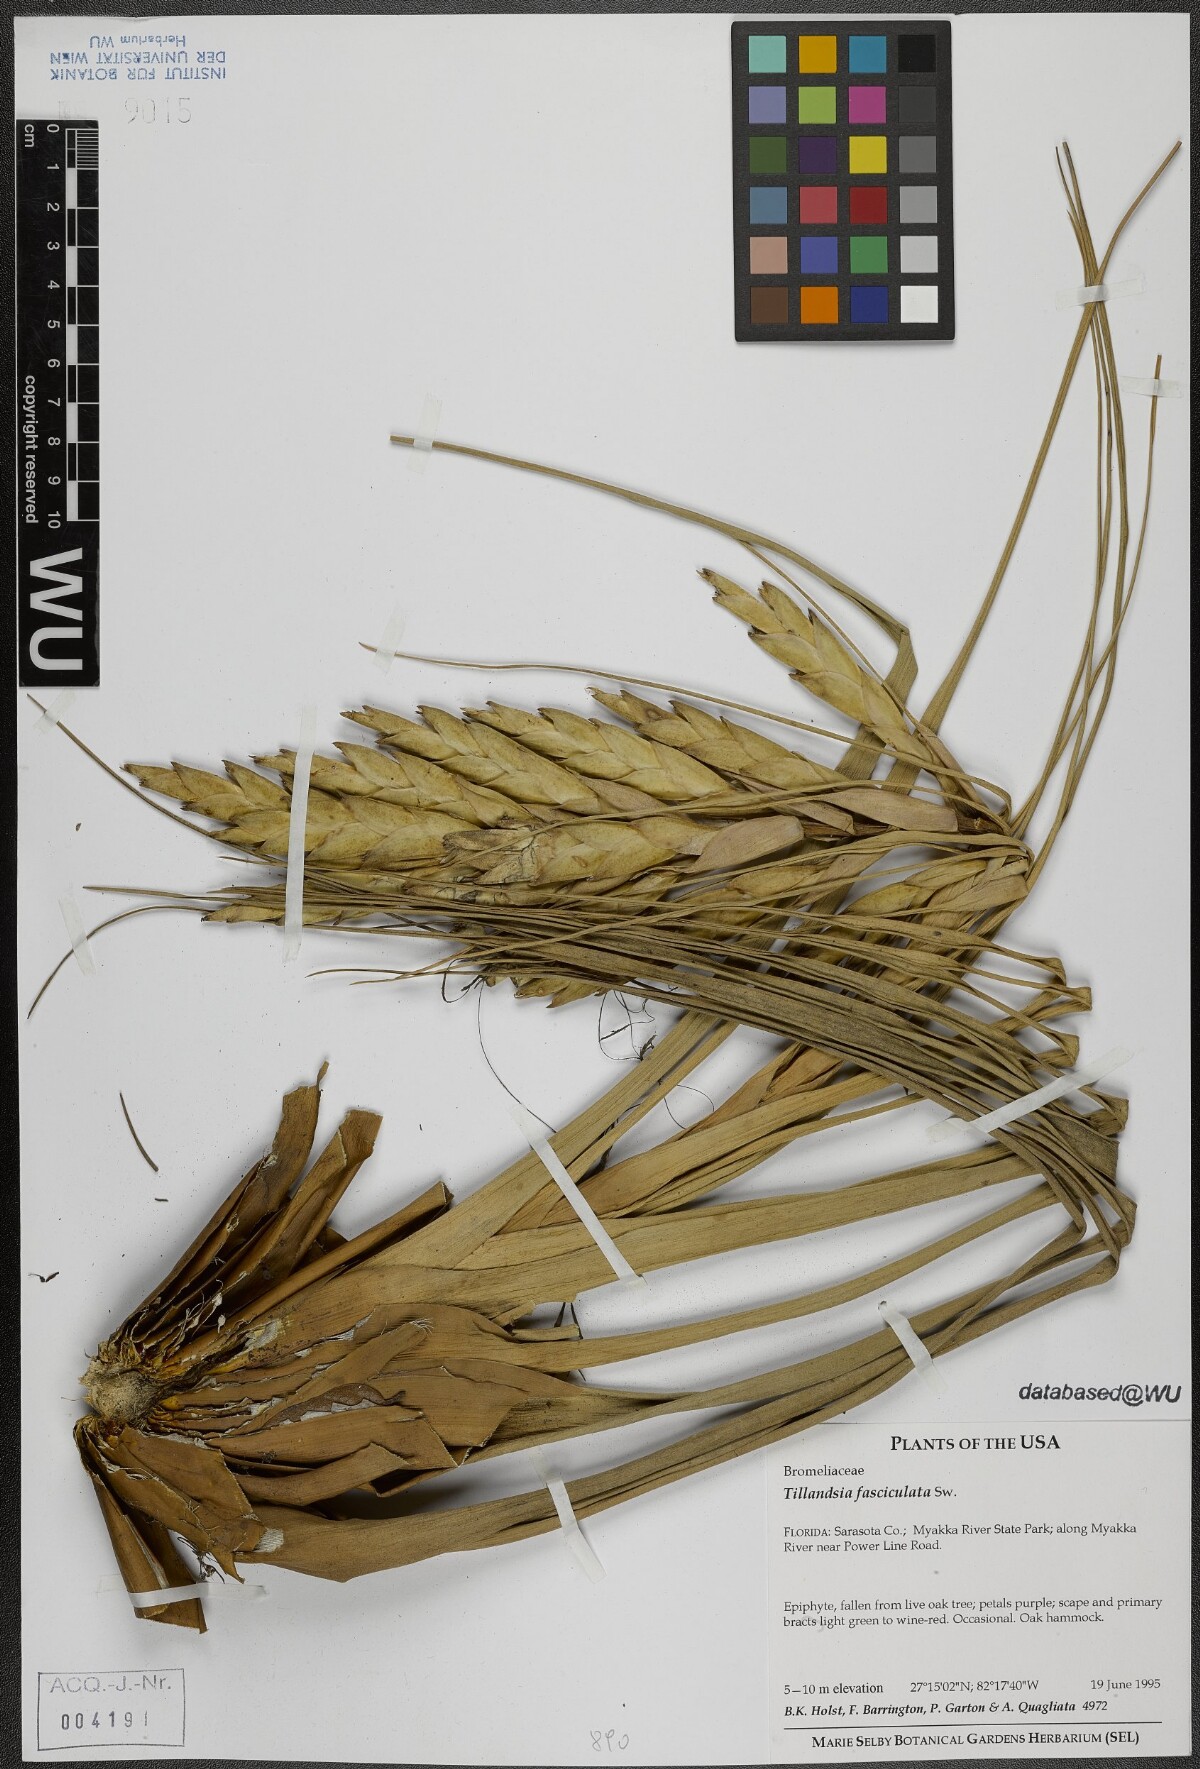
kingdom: Plantae
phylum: Tracheophyta
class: Liliopsida
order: Poales
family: Bromeliaceae
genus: Tillandsia
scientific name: Tillandsia fasciculata
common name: Giant airplant
